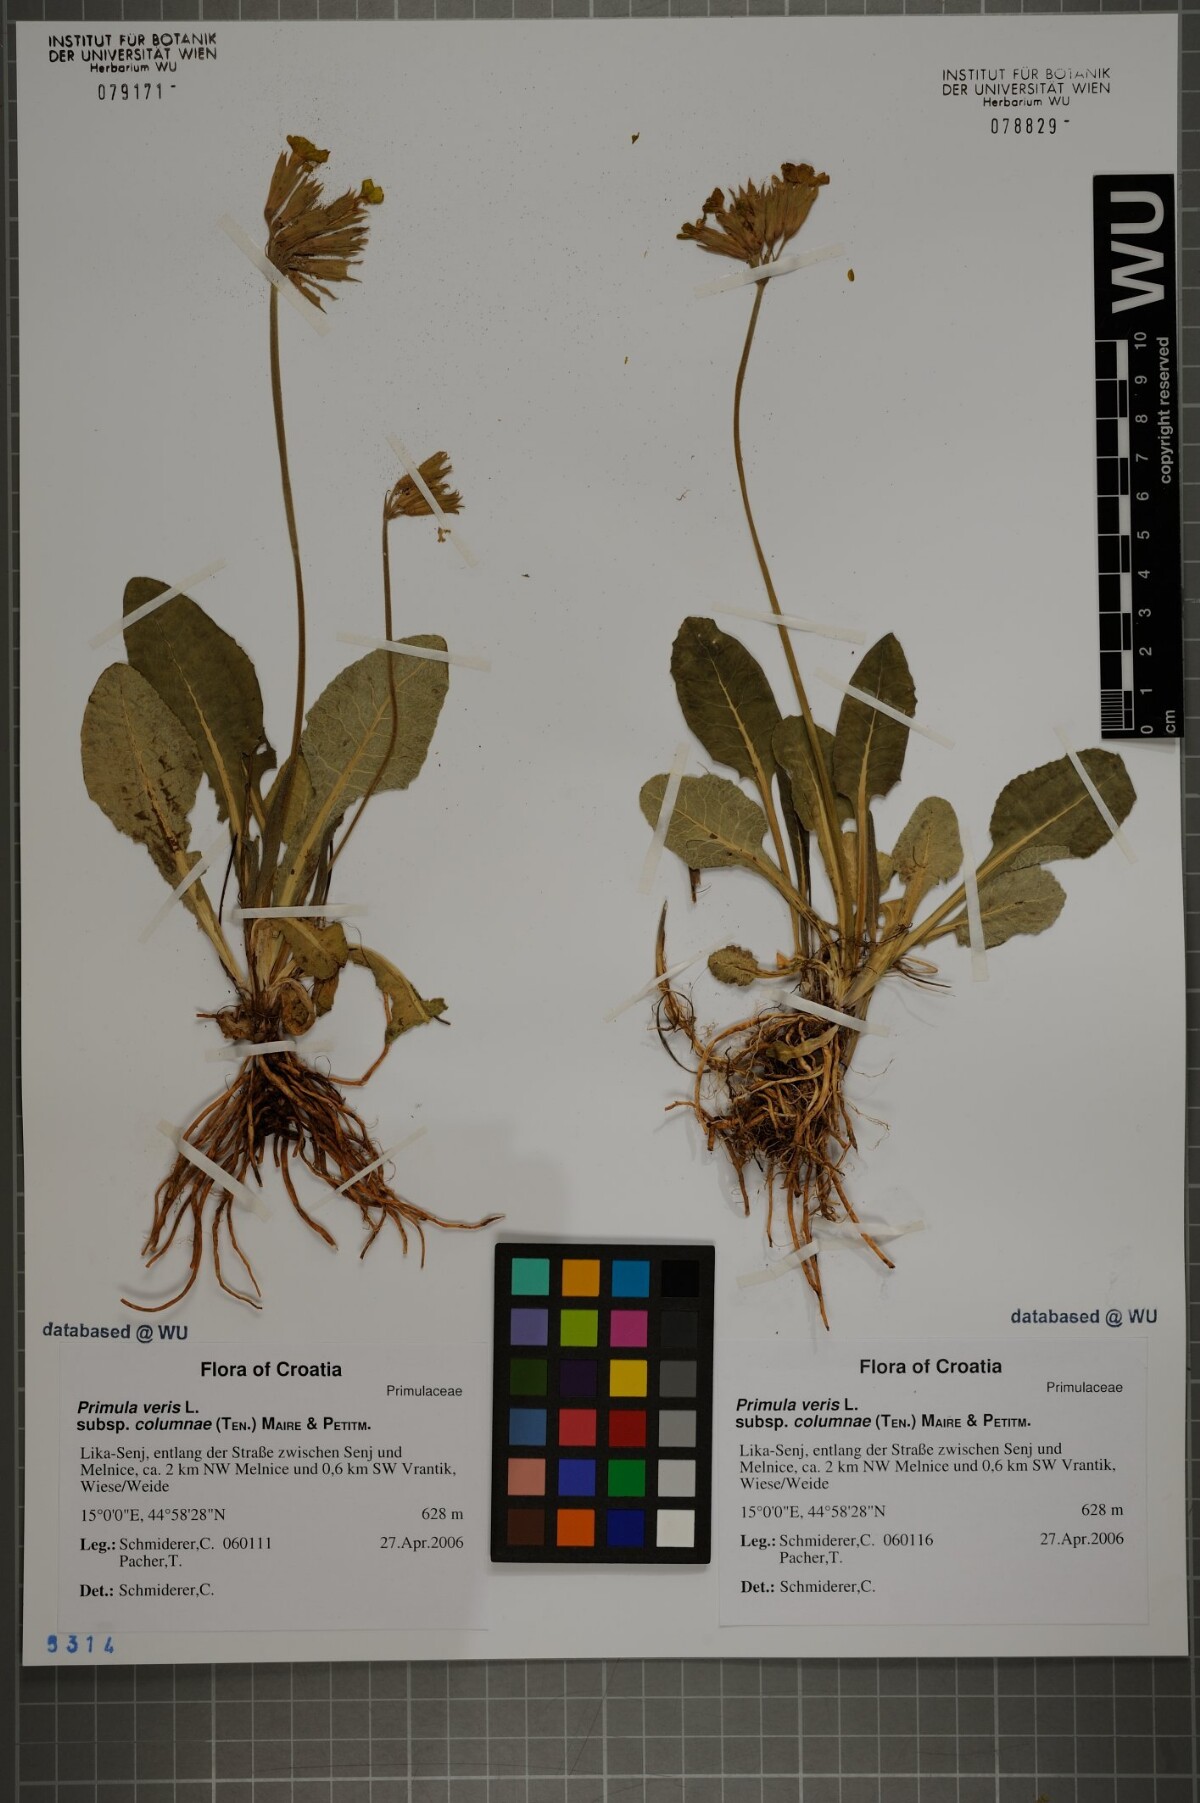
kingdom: Plantae
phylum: Tracheophyta
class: Magnoliopsida
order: Ericales
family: Primulaceae
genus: Primula
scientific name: Primula veris
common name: Cowslip
